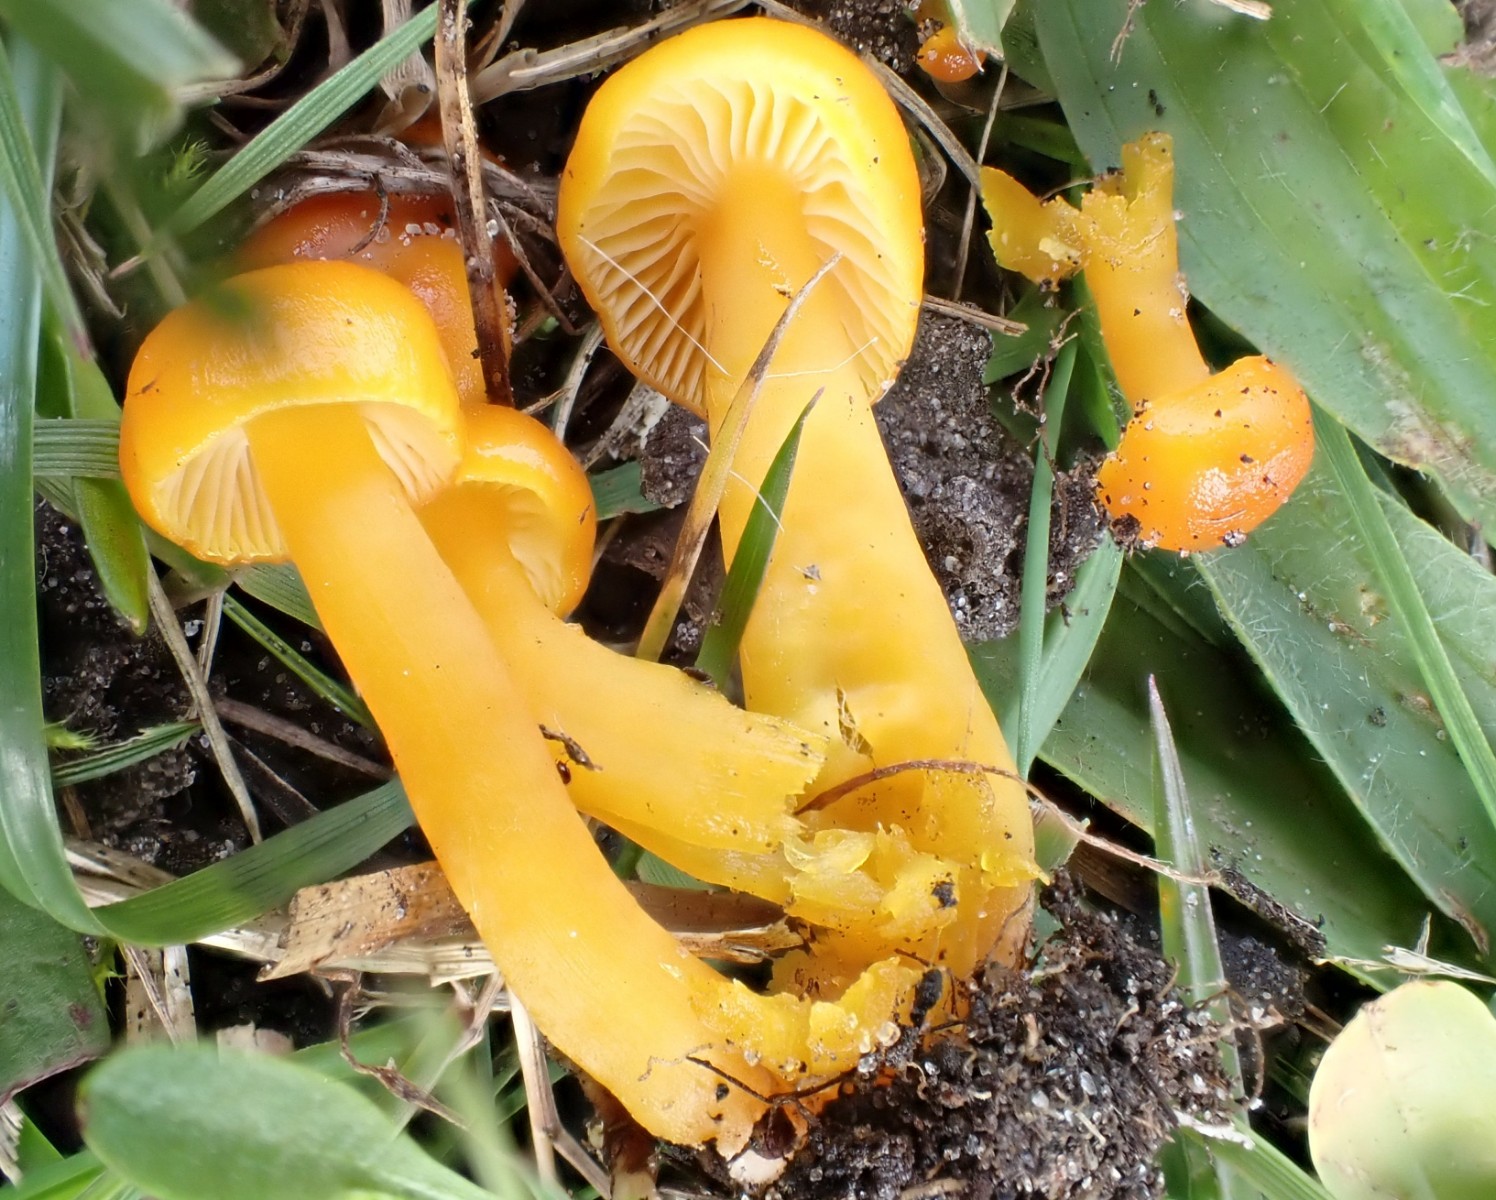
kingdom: Fungi
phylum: Basidiomycota
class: Agaricomycetes
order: Agaricales
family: Hygrophoraceae
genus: Hygrocybe
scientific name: Hygrocybe ceracea
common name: voksgul vokshat
